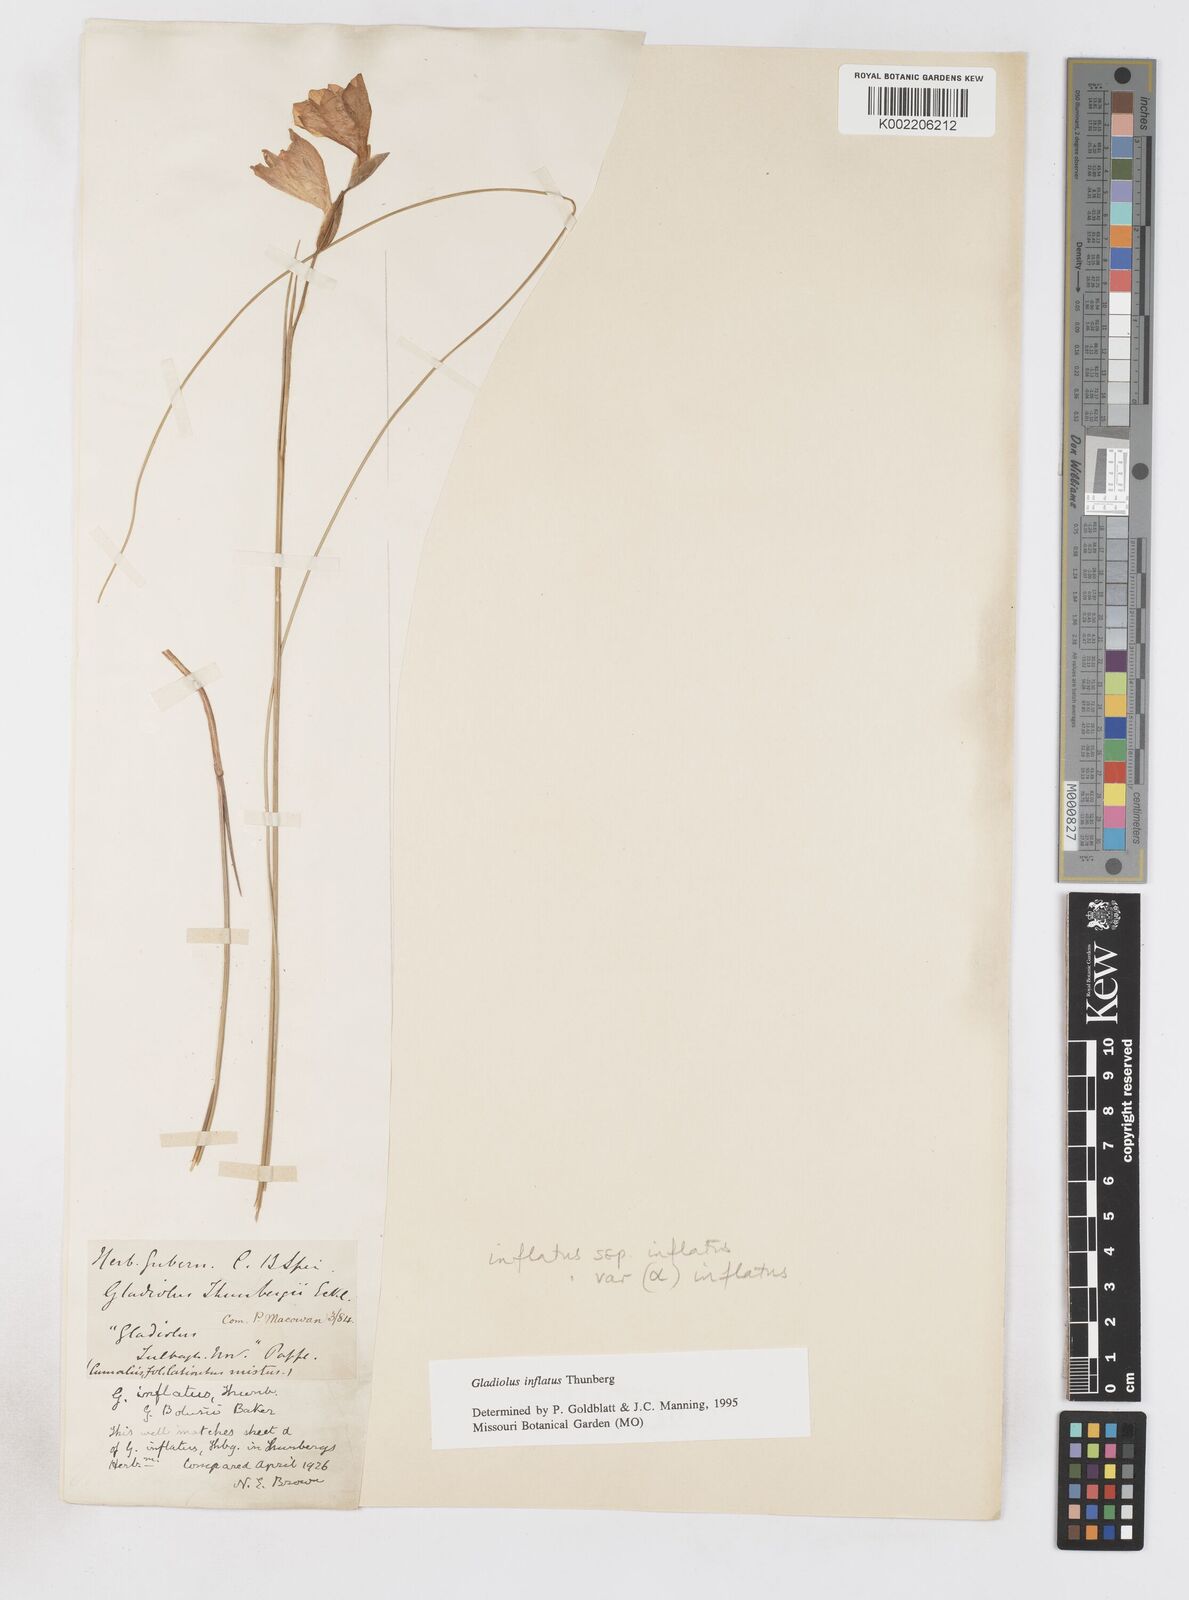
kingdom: Plantae
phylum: Tracheophyta
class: Liliopsida
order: Asparagales
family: Iridaceae
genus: Gladiolus
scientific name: Gladiolus inflatus
